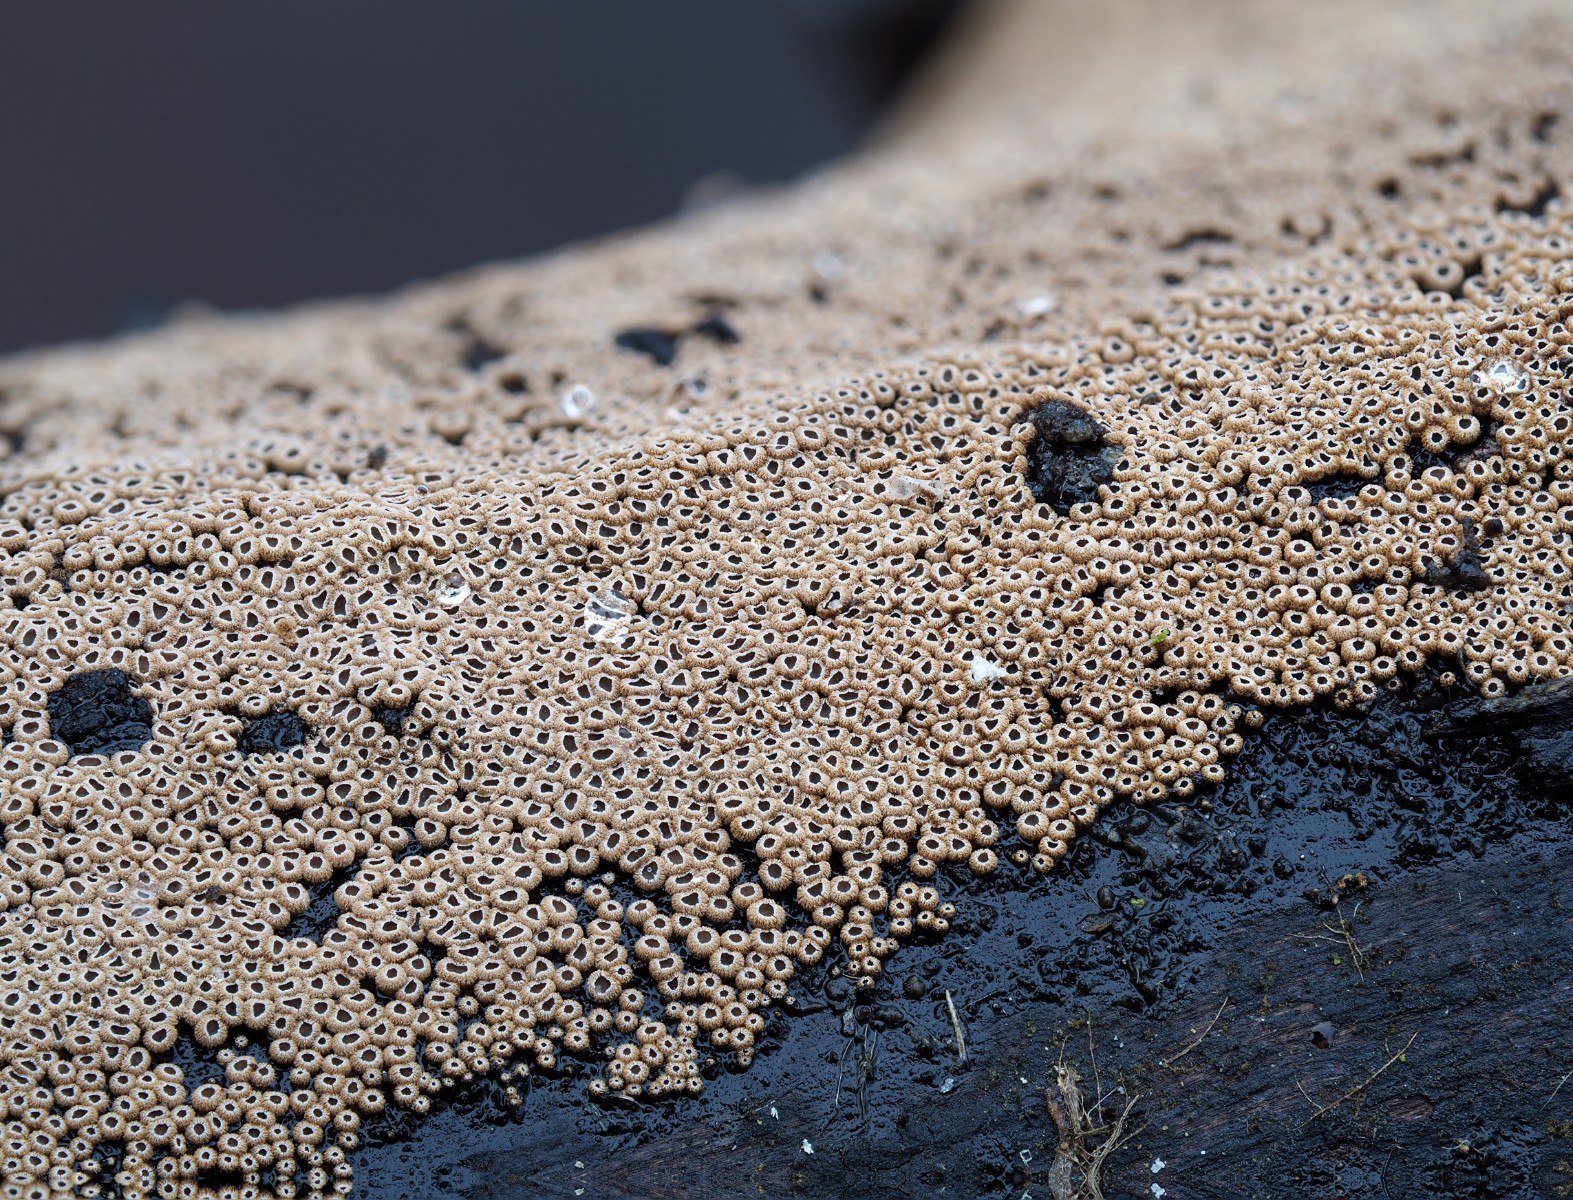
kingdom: Fungi
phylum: Basidiomycota
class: Agaricomycetes
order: Agaricales
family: Niaceae
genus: Merismodes
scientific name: Merismodes anomala
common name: almindelig læderskål
